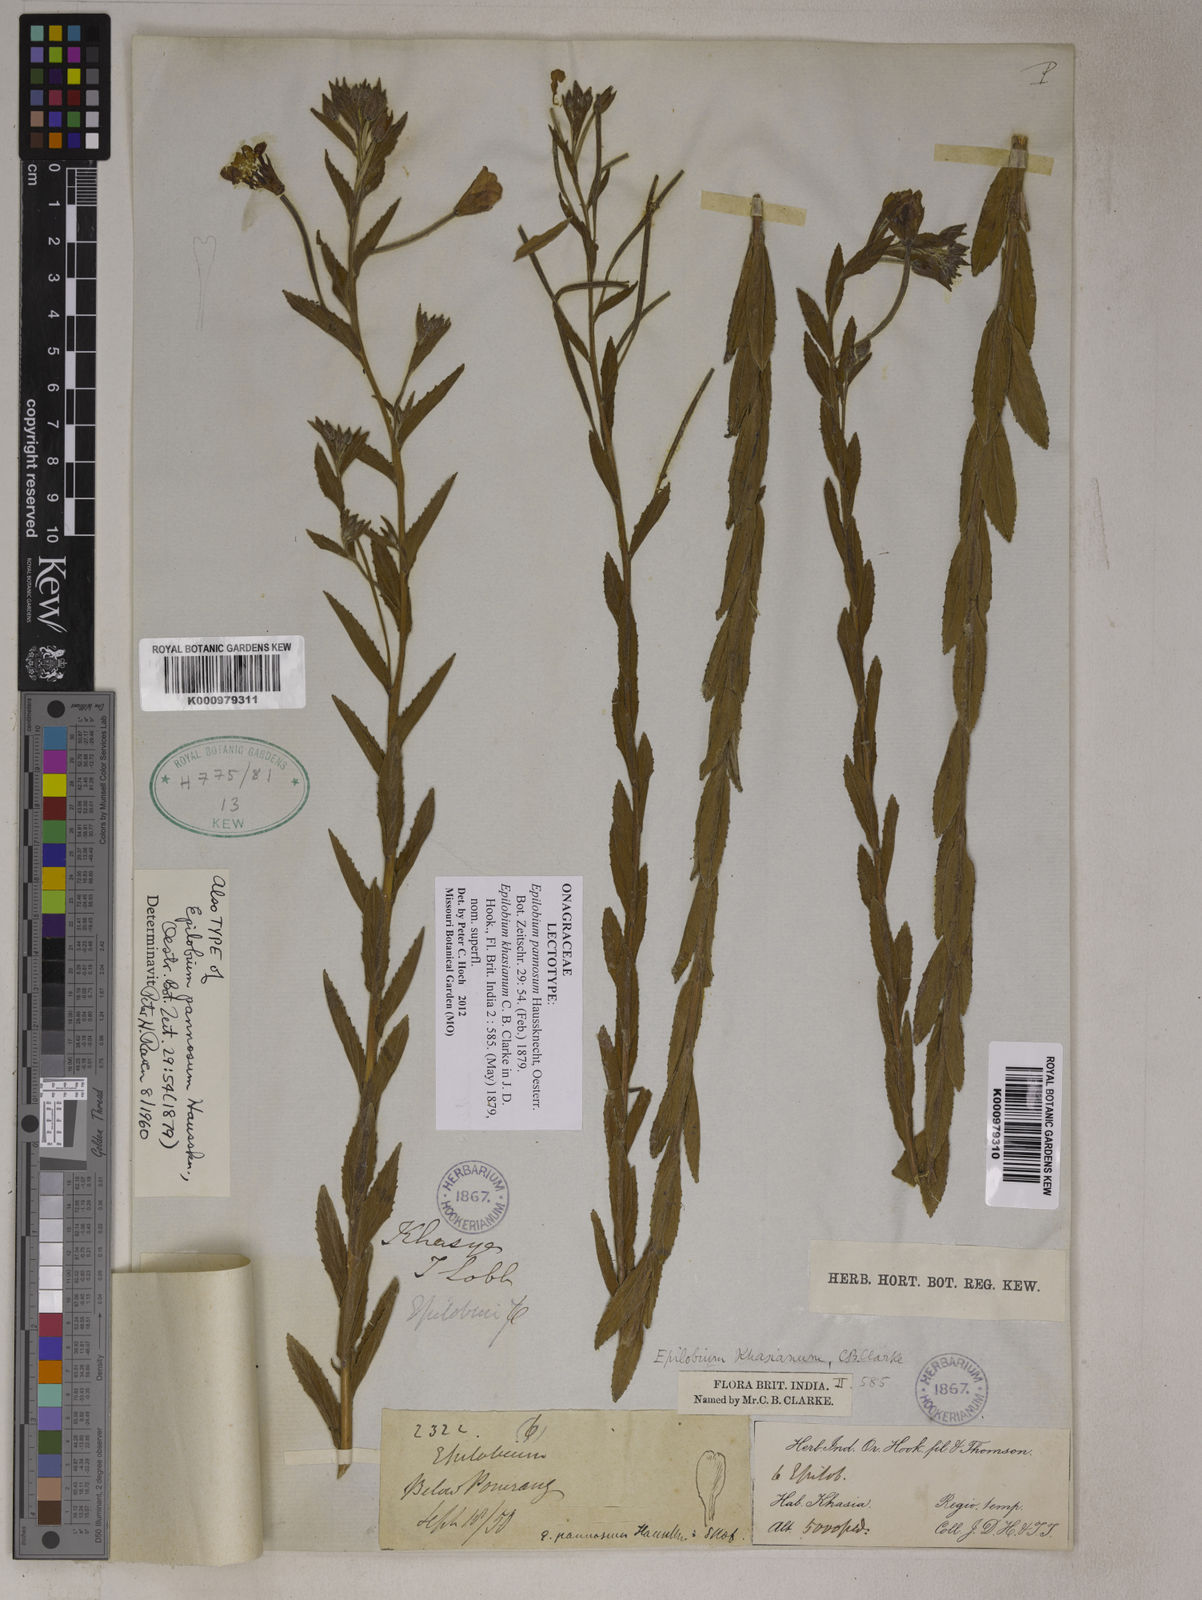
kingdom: Plantae
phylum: Tracheophyta
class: Magnoliopsida
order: Myrtales
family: Onagraceae
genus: Epilobium
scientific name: Epilobium pannosum
